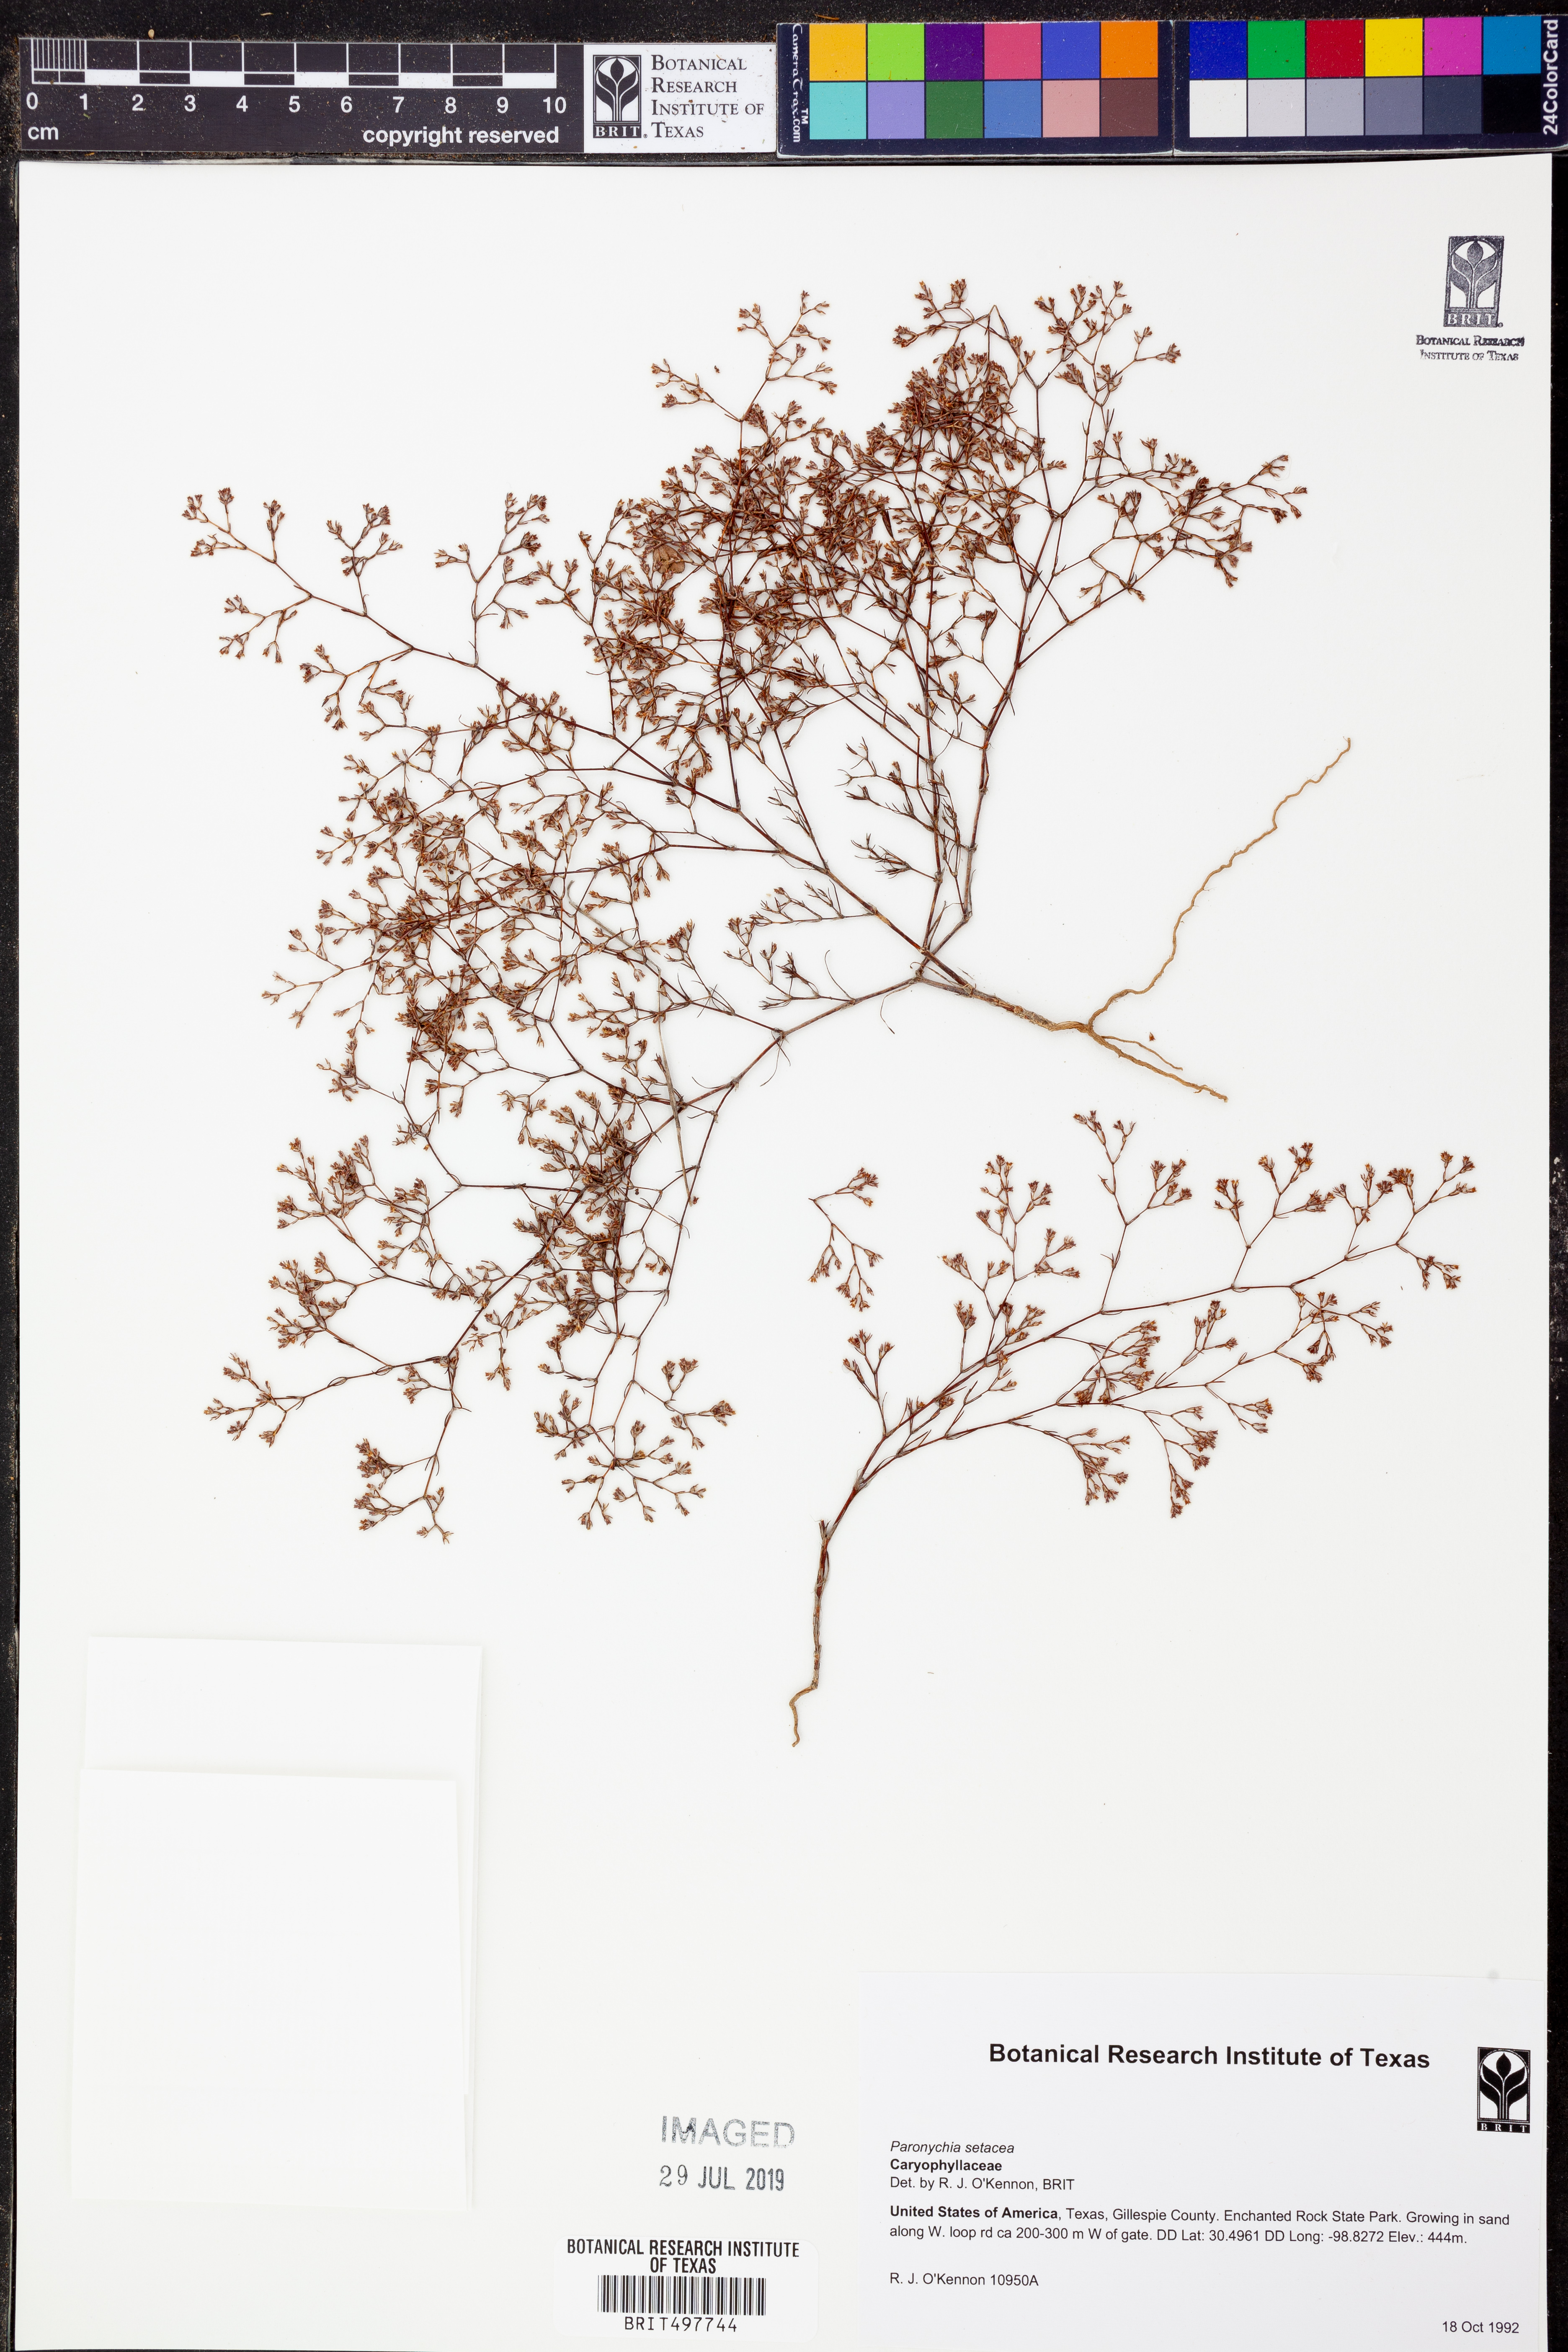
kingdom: Plantae
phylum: Tracheophyta
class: Magnoliopsida
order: Caryophyllales
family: Caryophyllaceae
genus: Paronychia
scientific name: Paronychia setacea
